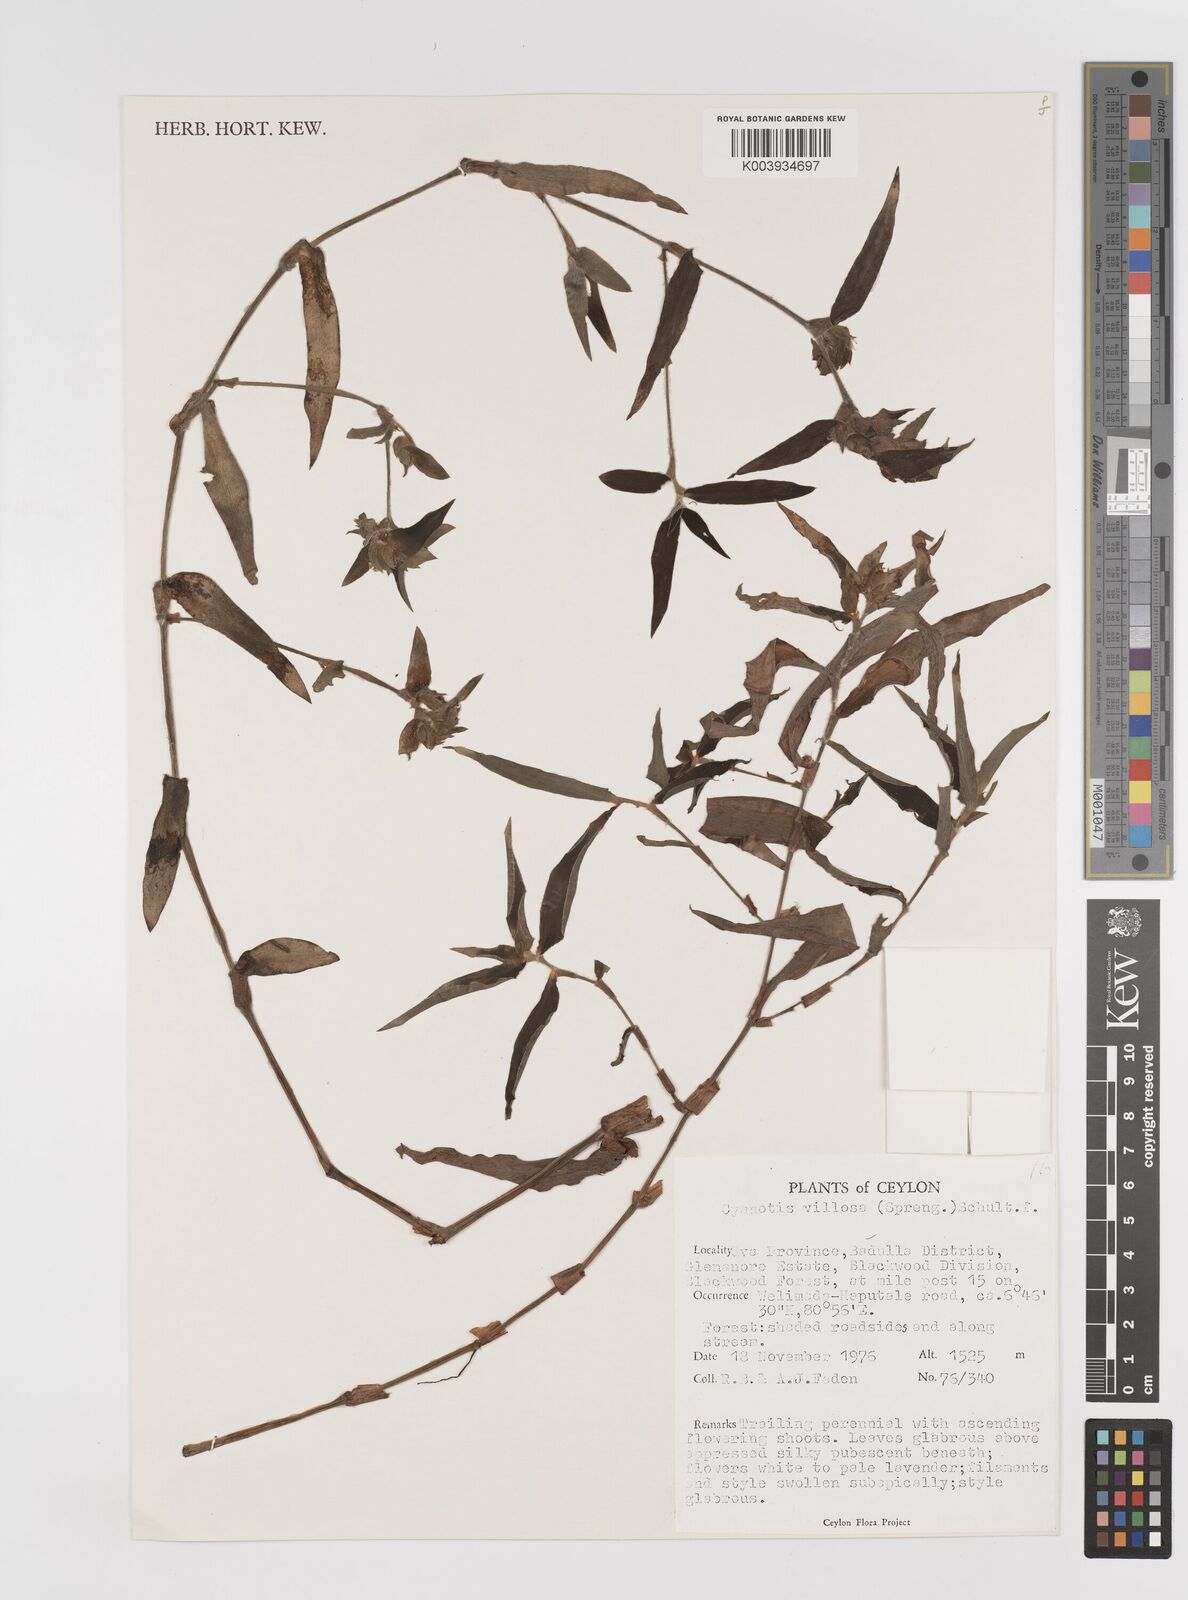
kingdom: Plantae
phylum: Tracheophyta
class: Liliopsida
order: Commelinales
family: Commelinaceae
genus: Cyanotis
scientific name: Cyanotis villosa
